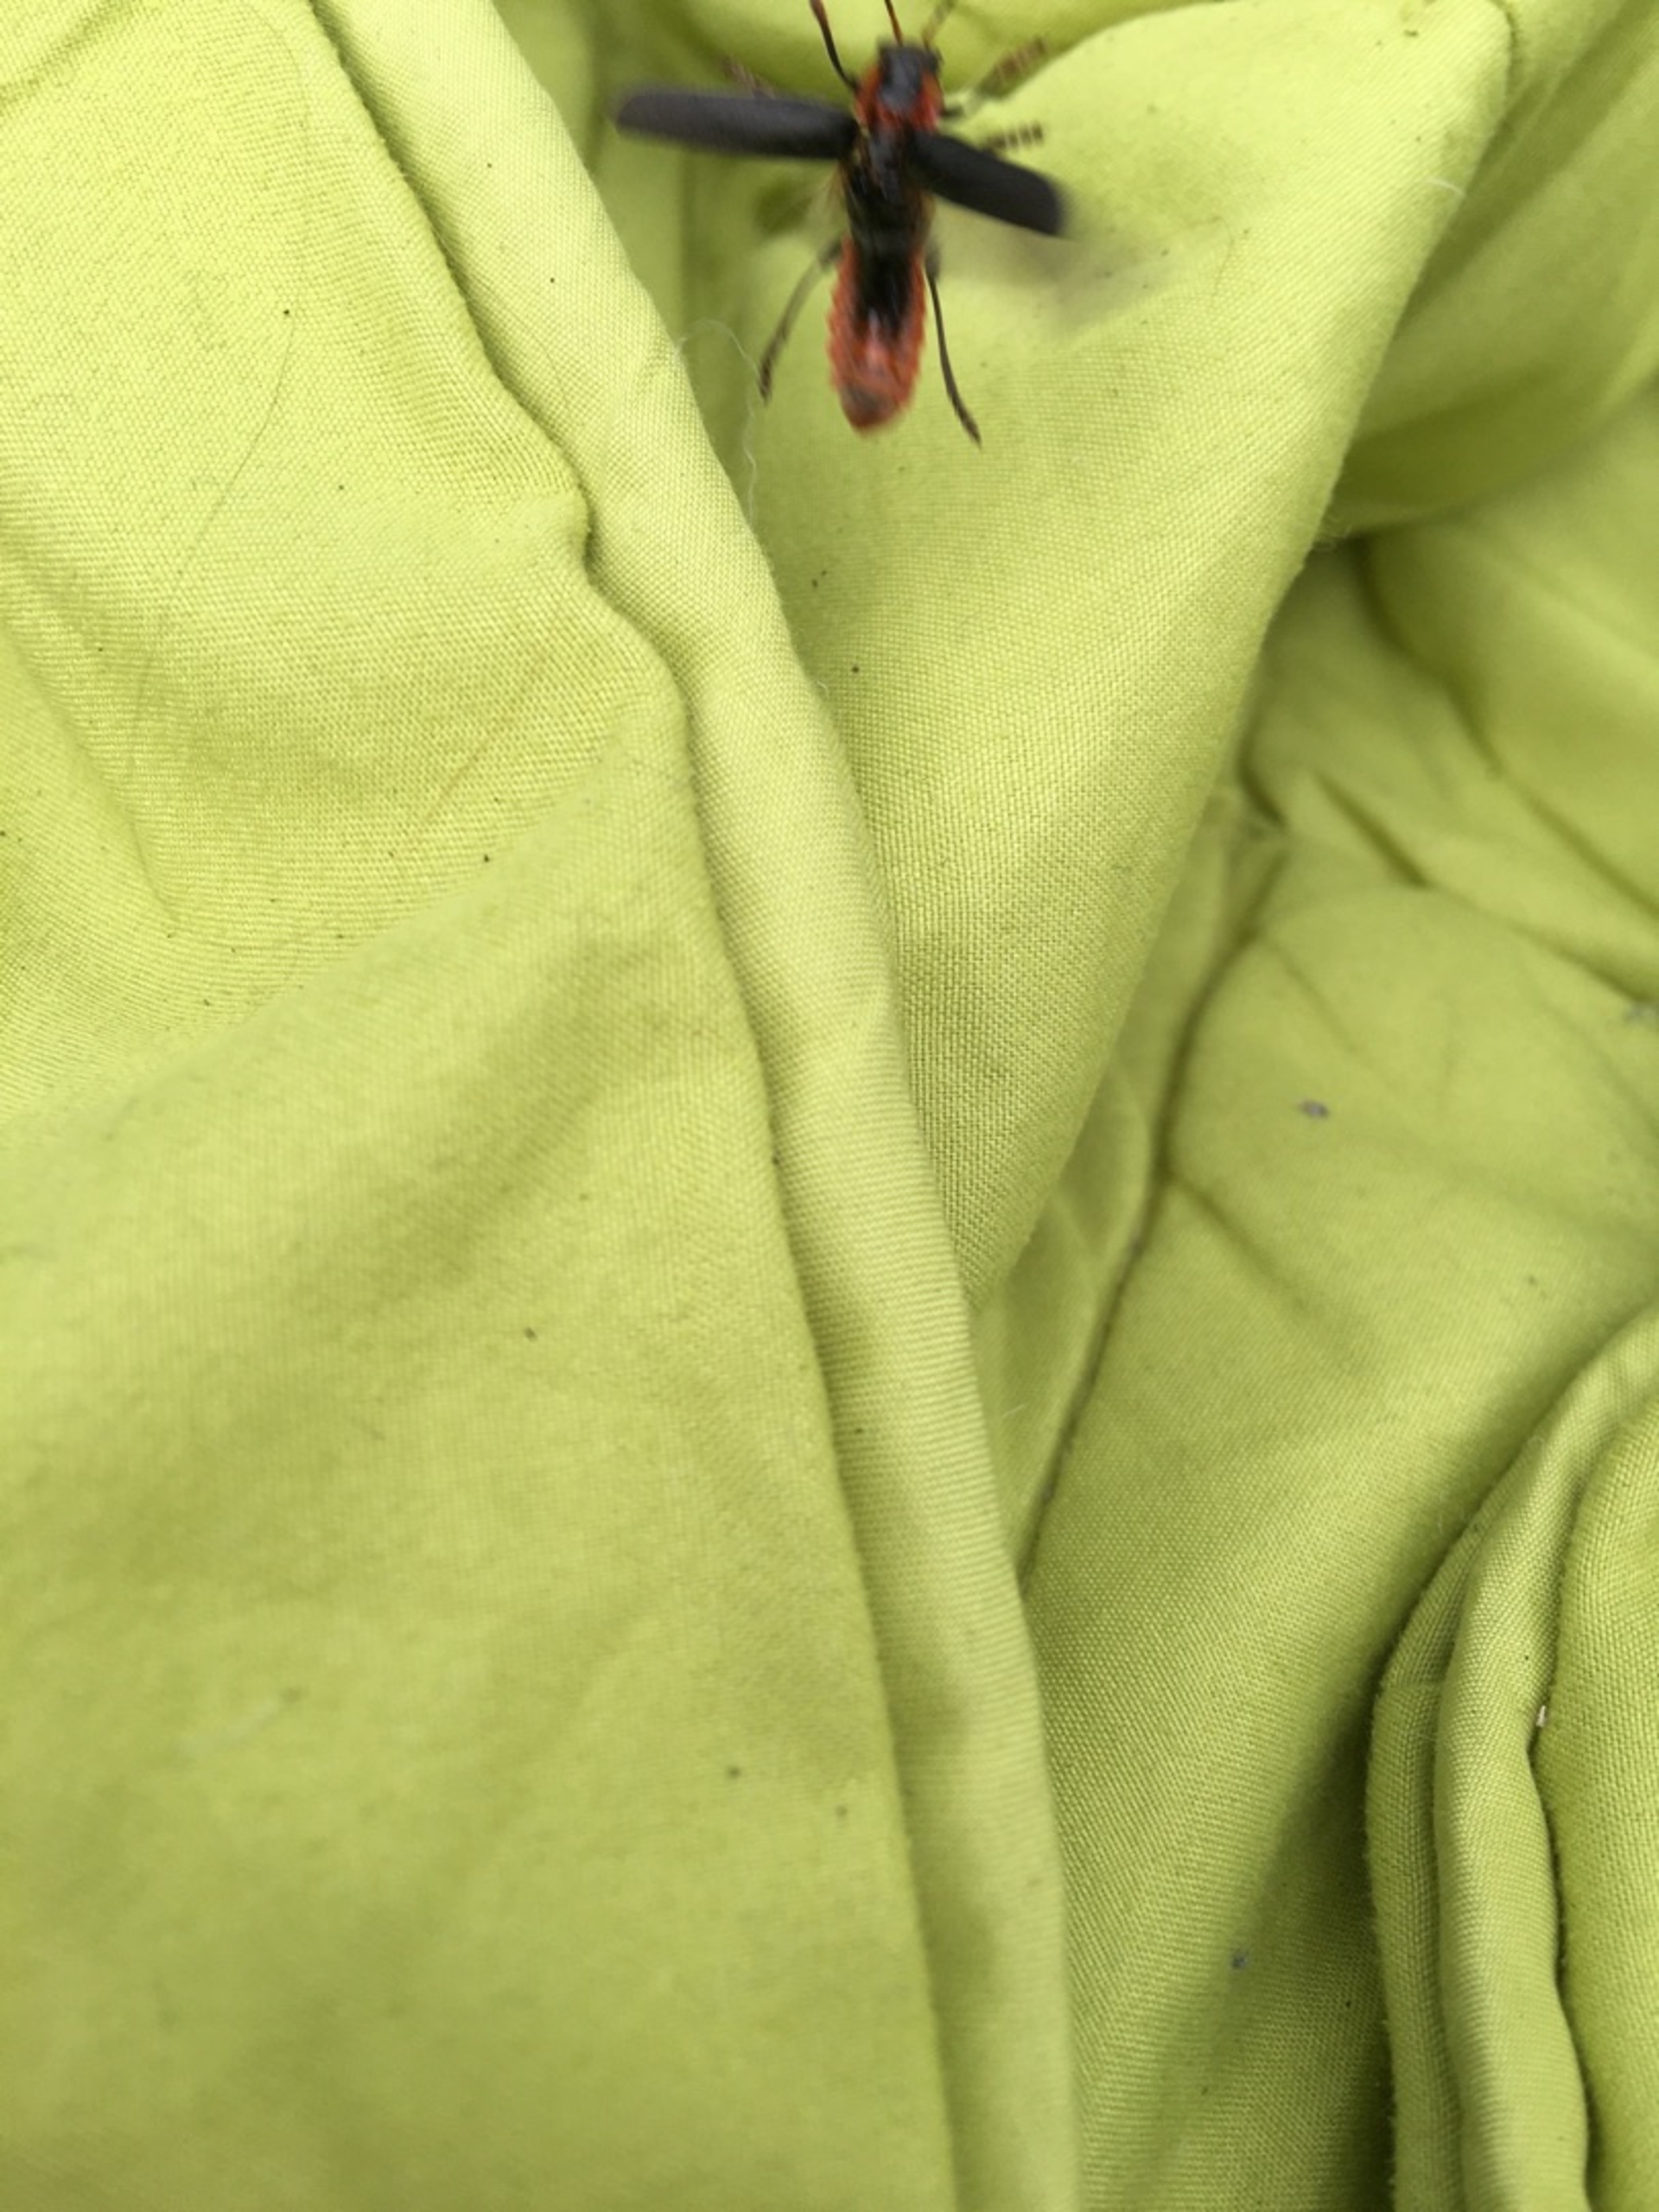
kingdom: Animalia
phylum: Arthropoda
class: Insecta
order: Coleoptera
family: Cantharidae
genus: Cantharis
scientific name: Cantharis fusca
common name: Stor blødvinge
